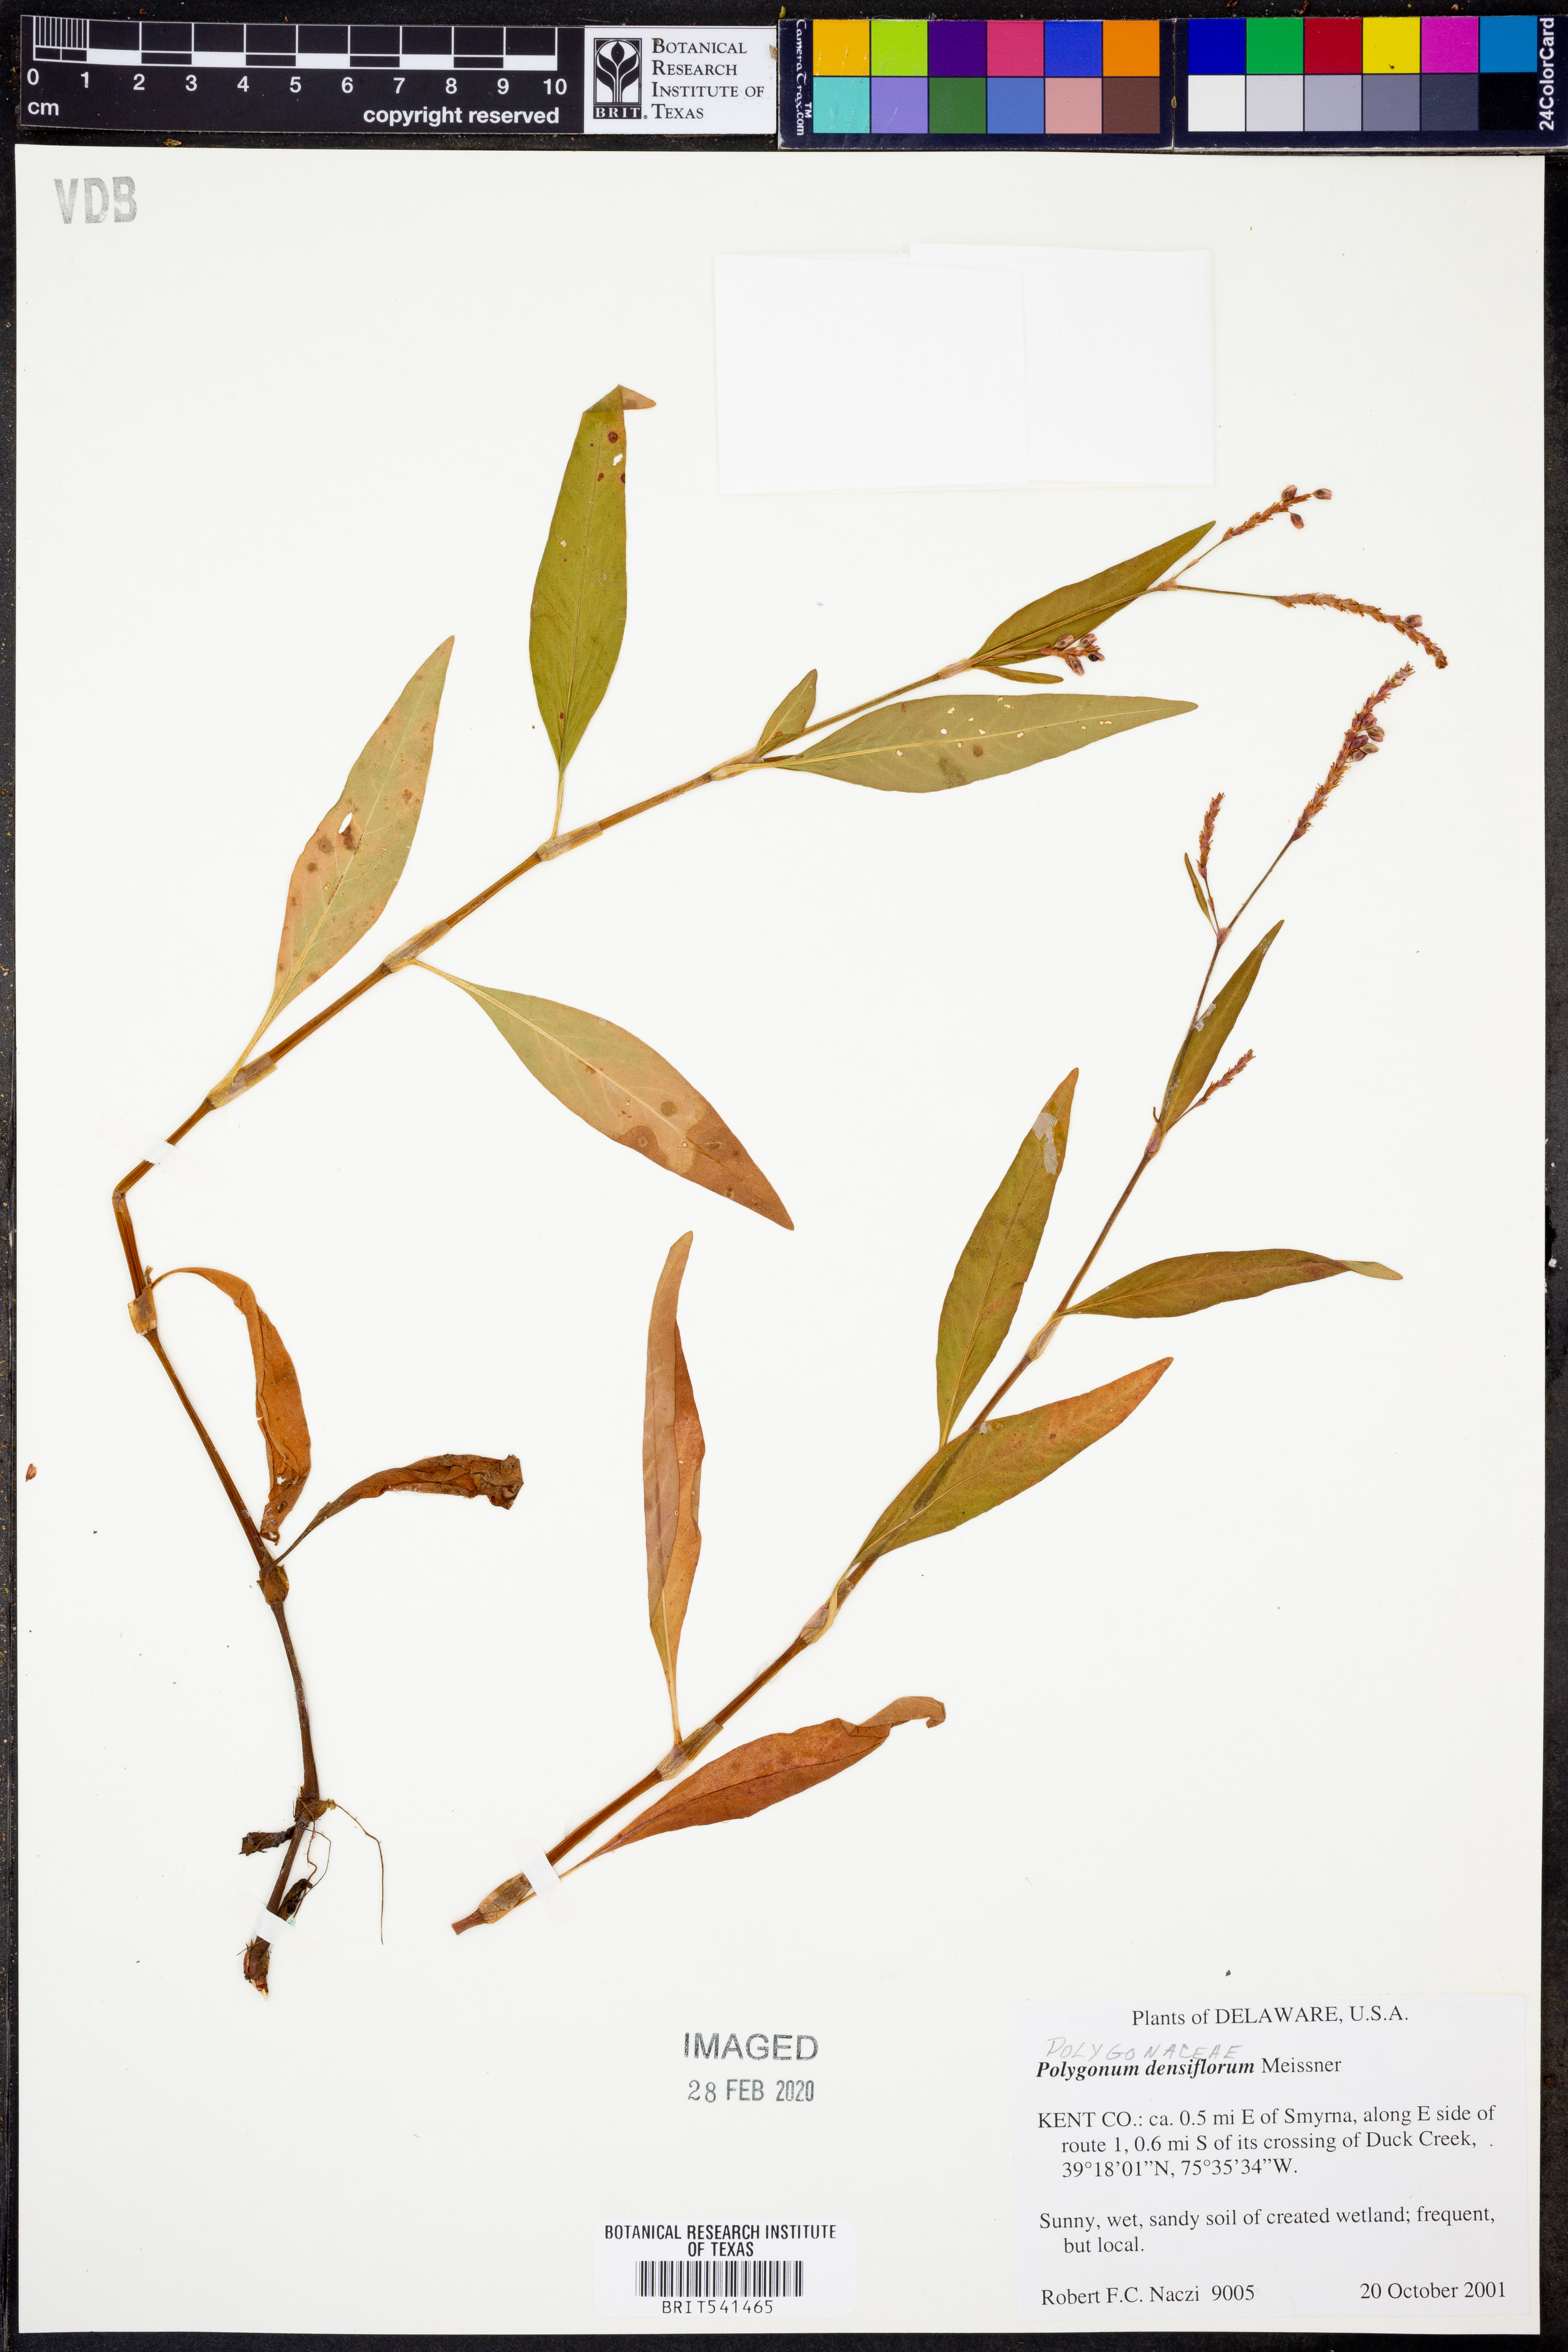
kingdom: Plantae
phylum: Tracheophyta
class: Magnoliopsida
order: Caryophyllales
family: Polygonaceae
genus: Persicaria
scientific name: Persicaria glabra
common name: Denseflower knotweed
